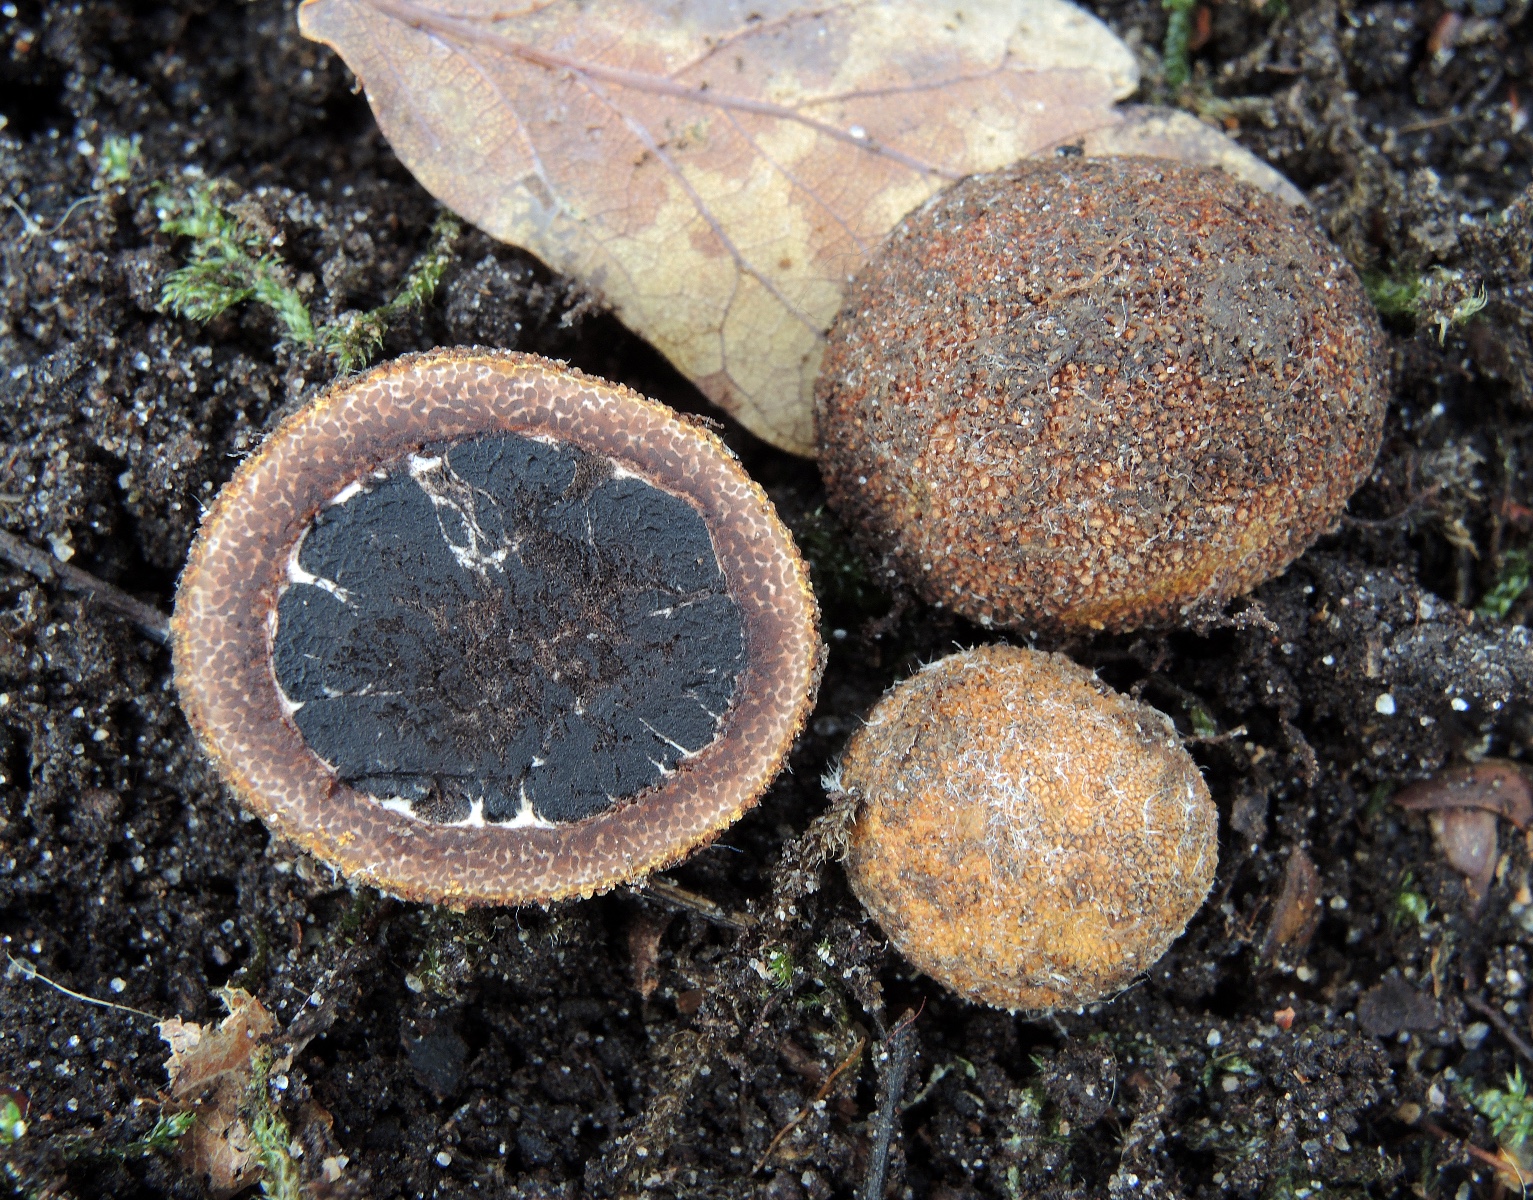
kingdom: Fungi
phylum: Ascomycota
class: Eurotiomycetes
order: Eurotiales
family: Elaphomycetaceae
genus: Elaphomyces
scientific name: Elaphomyces muricatus
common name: vortet hjortetrøffel
